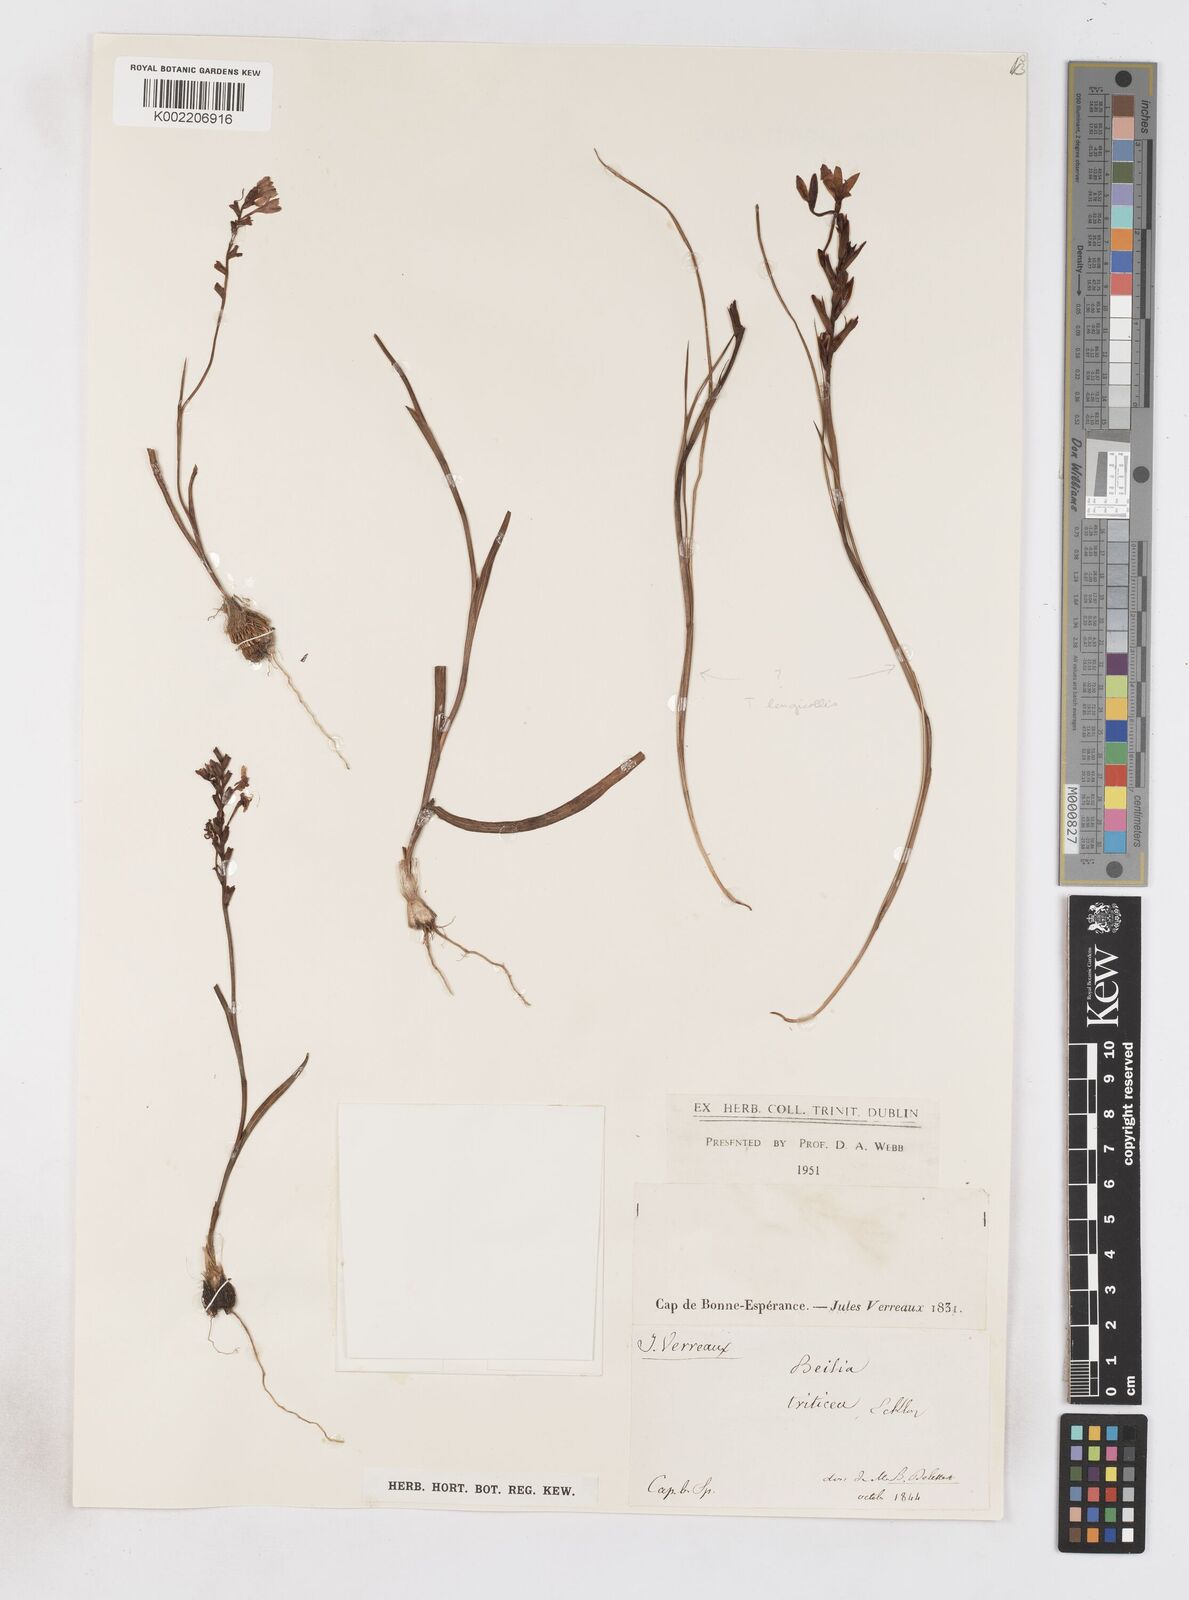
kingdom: Plantae
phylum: Tracheophyta
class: Liliopsida
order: Asparagales
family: Iridaceae
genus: Micranthus
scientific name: Micranthus
